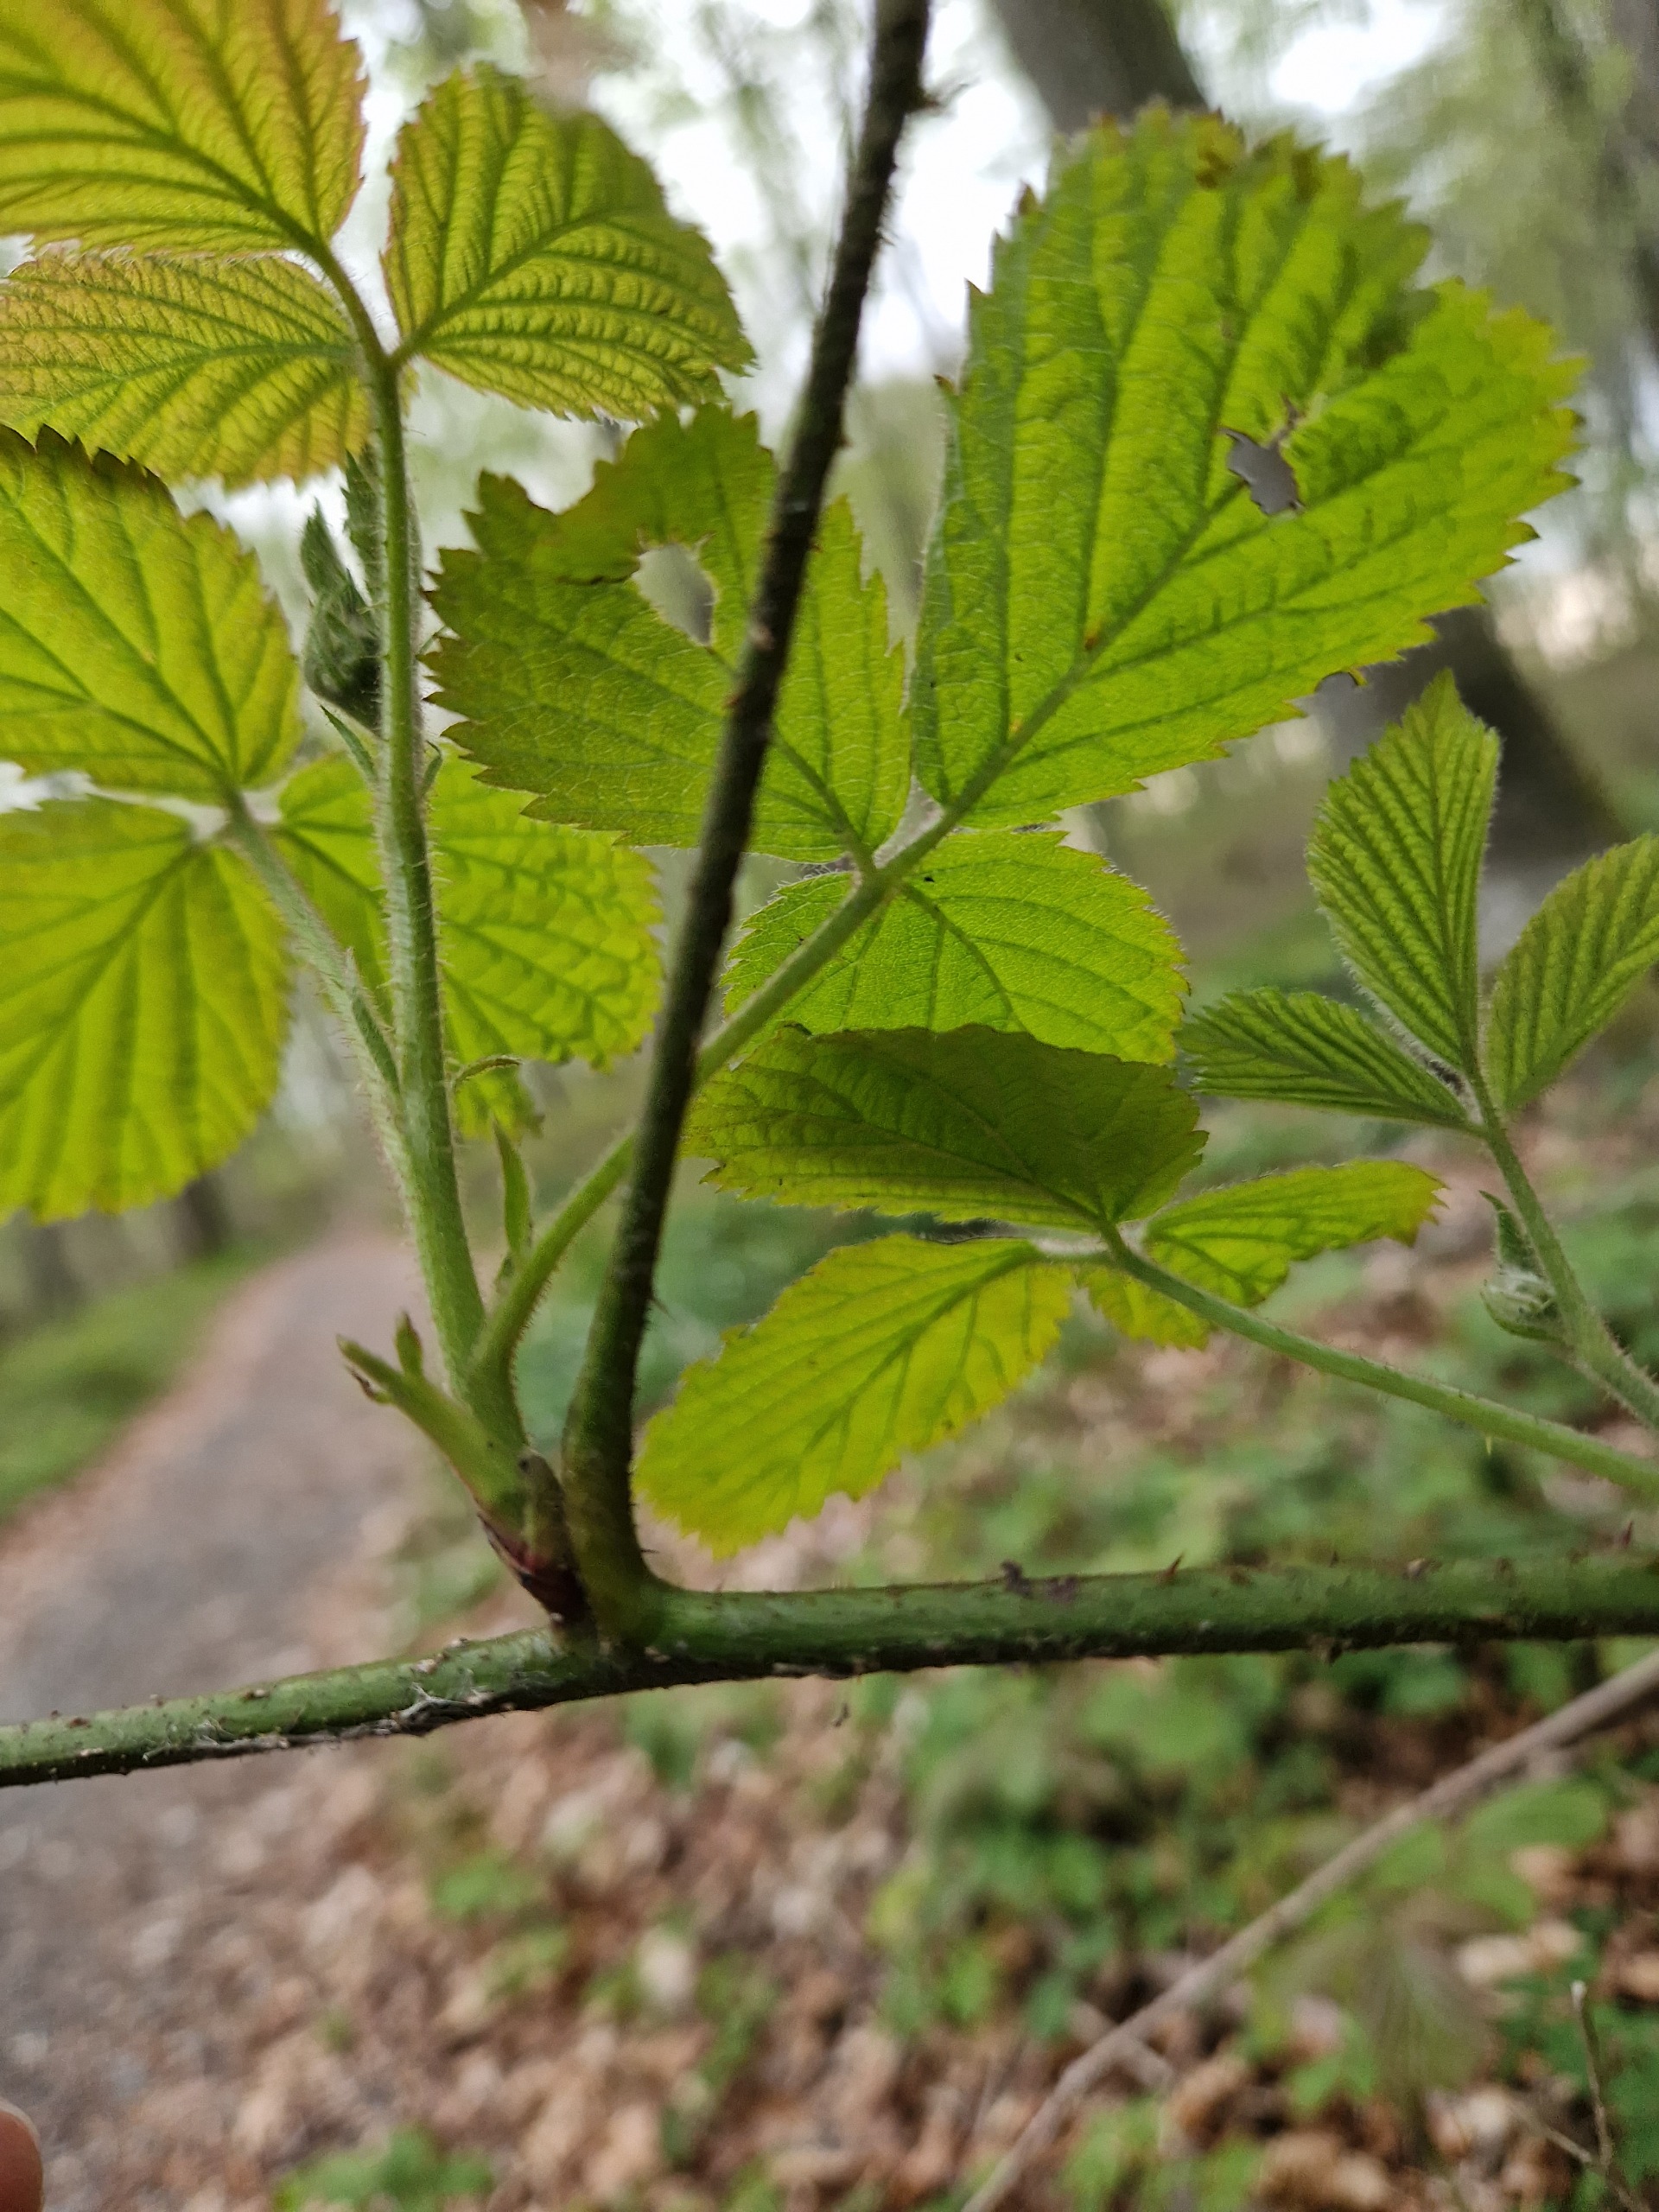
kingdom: Plantae
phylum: Tracheophyta
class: Magnoliopsida
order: Rosales
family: Rosaceae
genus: Rubus
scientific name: Rubus
